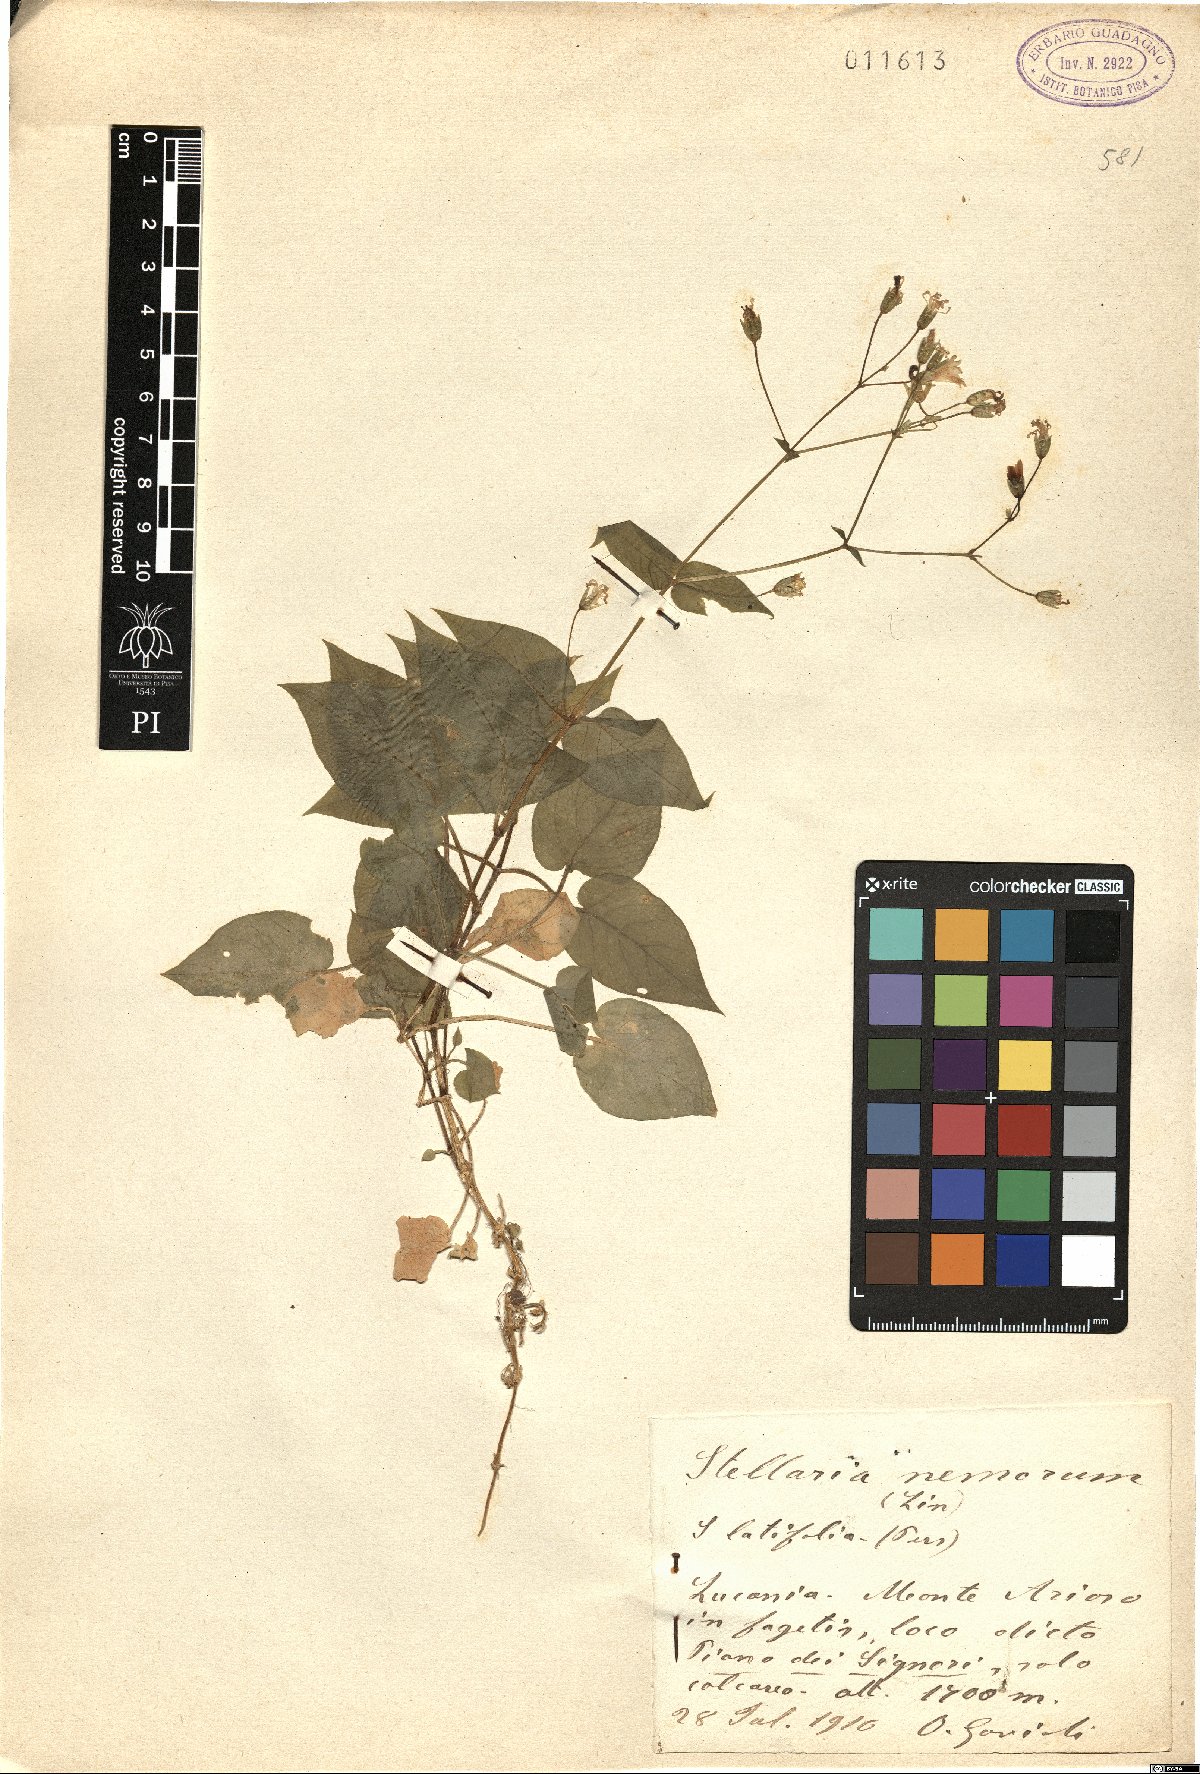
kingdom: Plantae
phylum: Tracheophyta
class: Magnoliopsida
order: Caryophyllales
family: Caryophyllaceae
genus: Stellaria
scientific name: Stellaria nemorum
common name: Wood stitchwort
